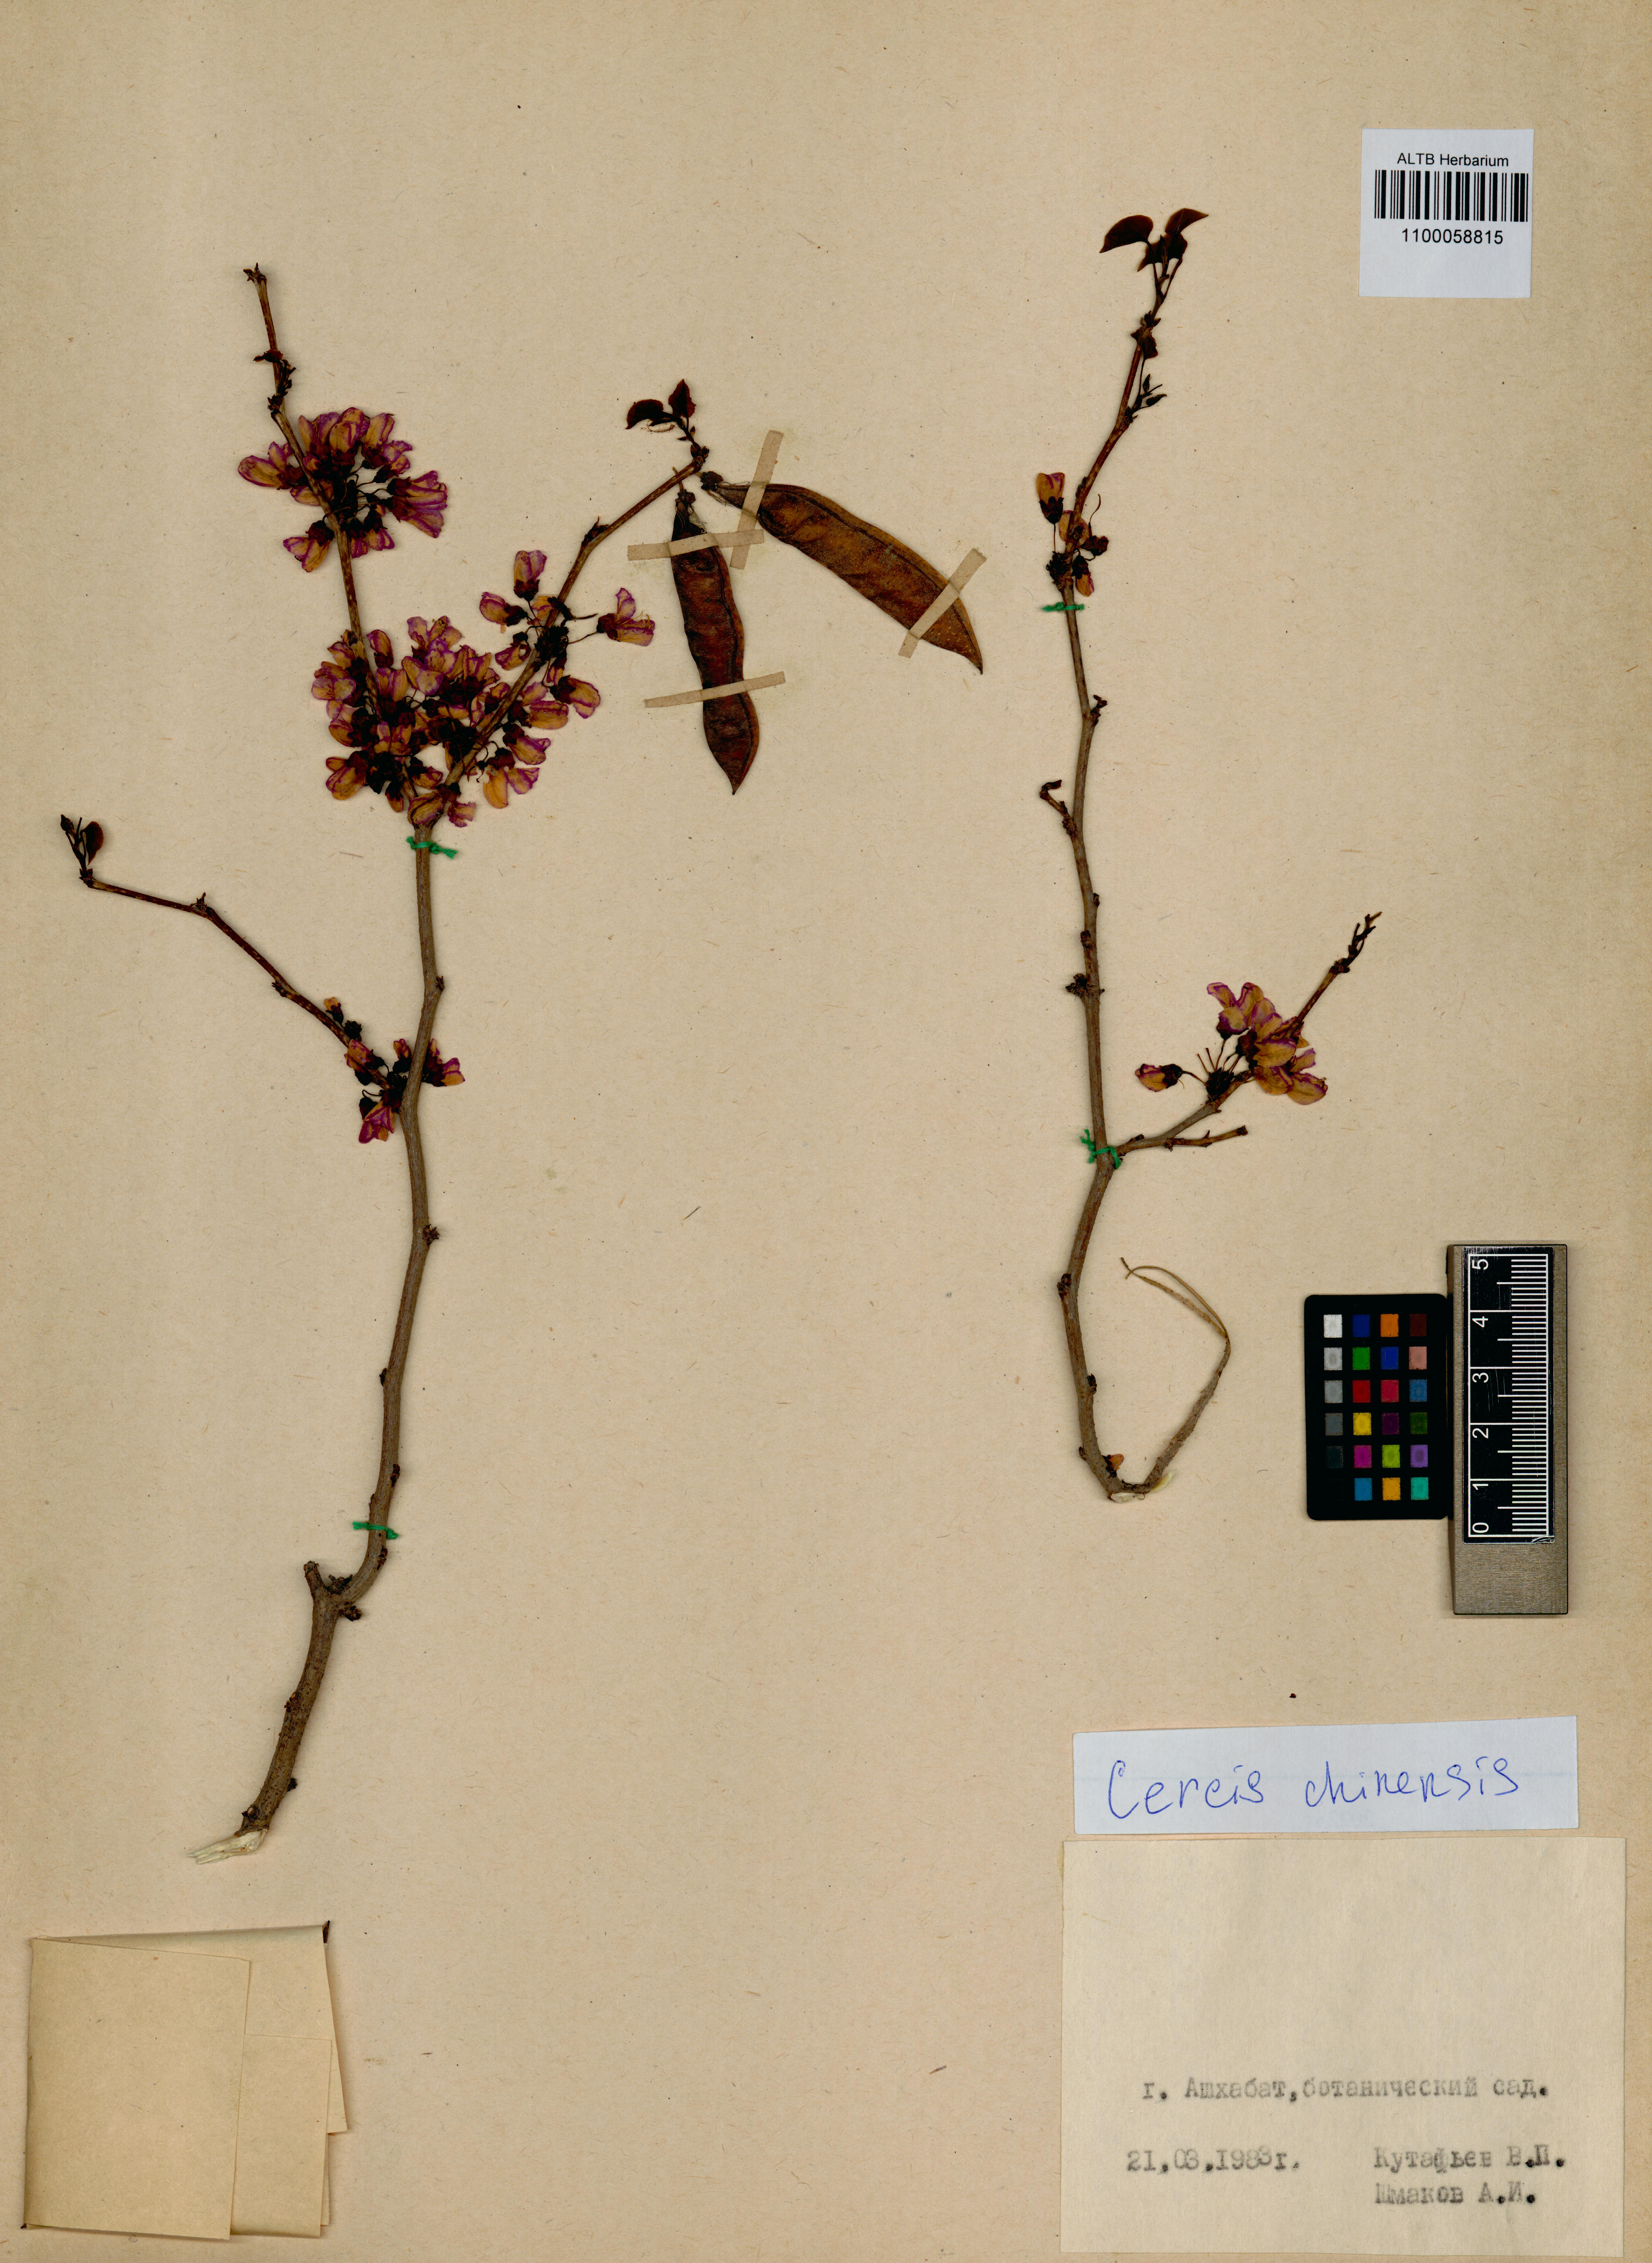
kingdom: Plantae
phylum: Tracheophyta
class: Magnoliopsida
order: Fabales
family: Fabaceae
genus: Cercis
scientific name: Cercis chinensis
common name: Chinese redbud
